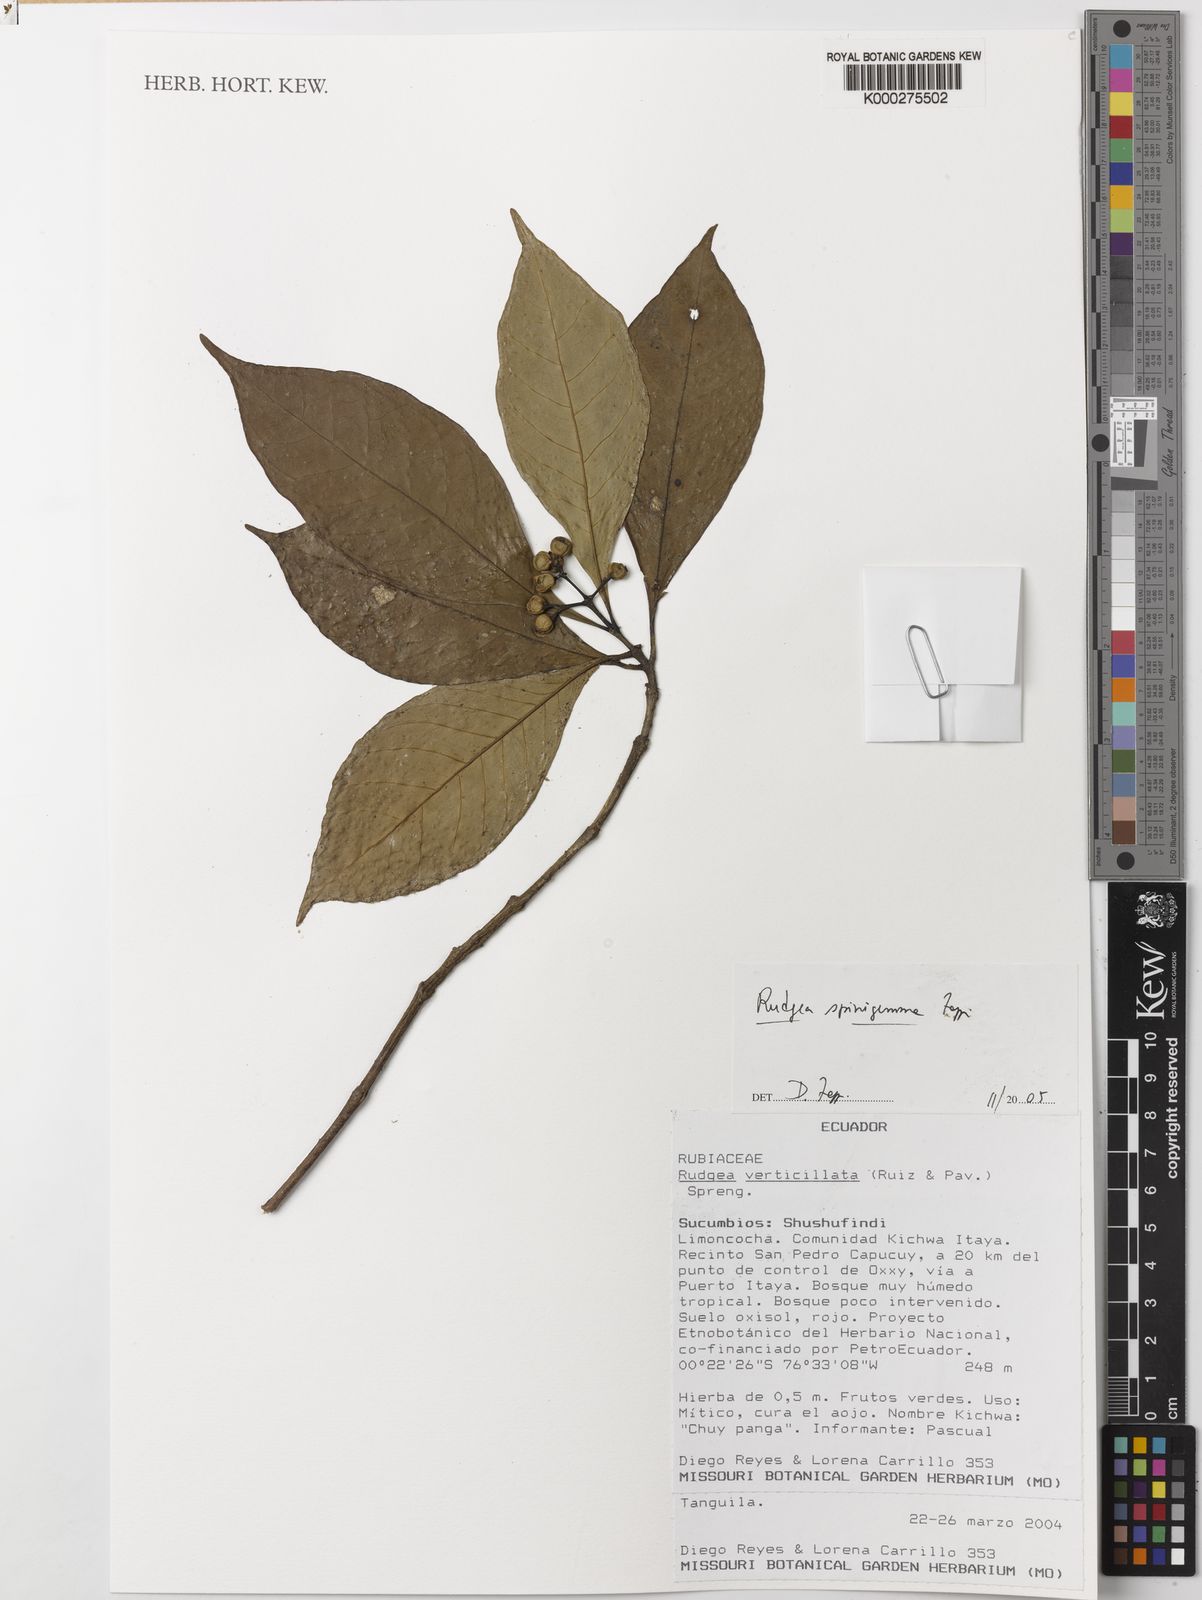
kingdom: Plantae
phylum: Tracheophyta
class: Magnoliopsida
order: Gentianales
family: Rubiaceae
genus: Rudgea
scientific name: Rudgea spinigemma
